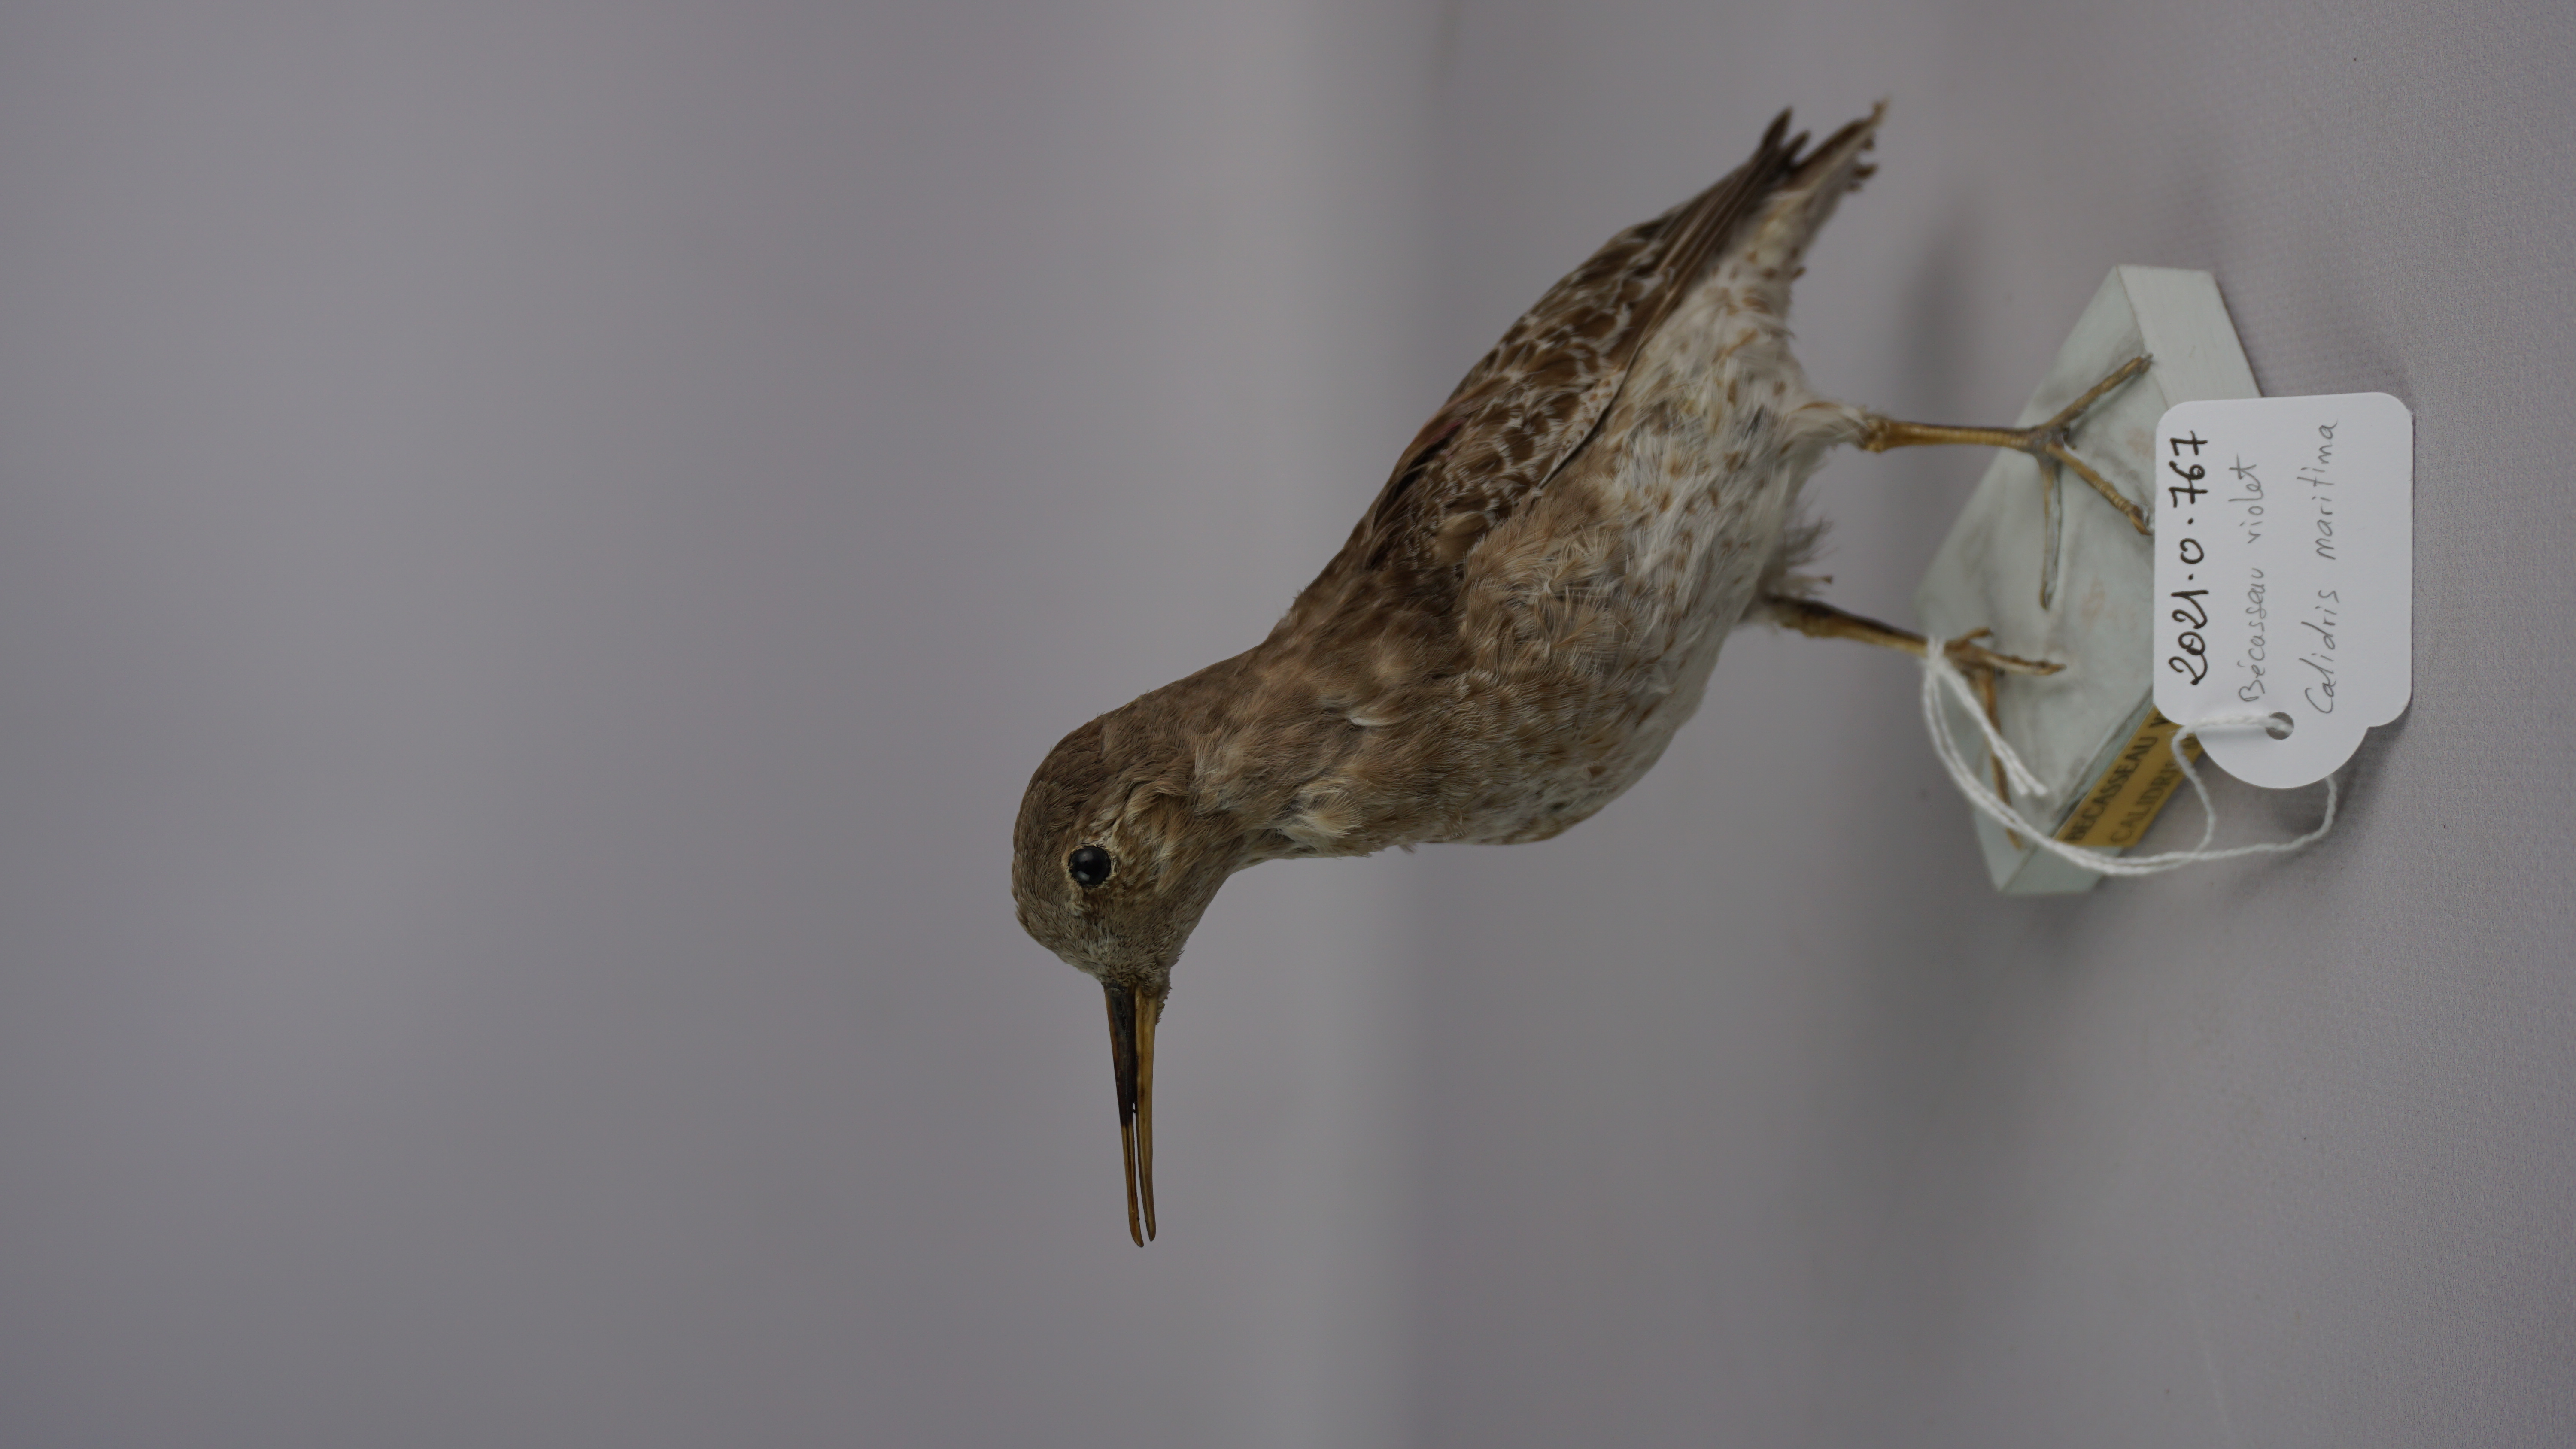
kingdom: Animalia
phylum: Chordata
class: Aves
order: Charadriiformes
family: Scolopacidae
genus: Calidris
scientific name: Calidris maritima
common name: Purple sandpiper
